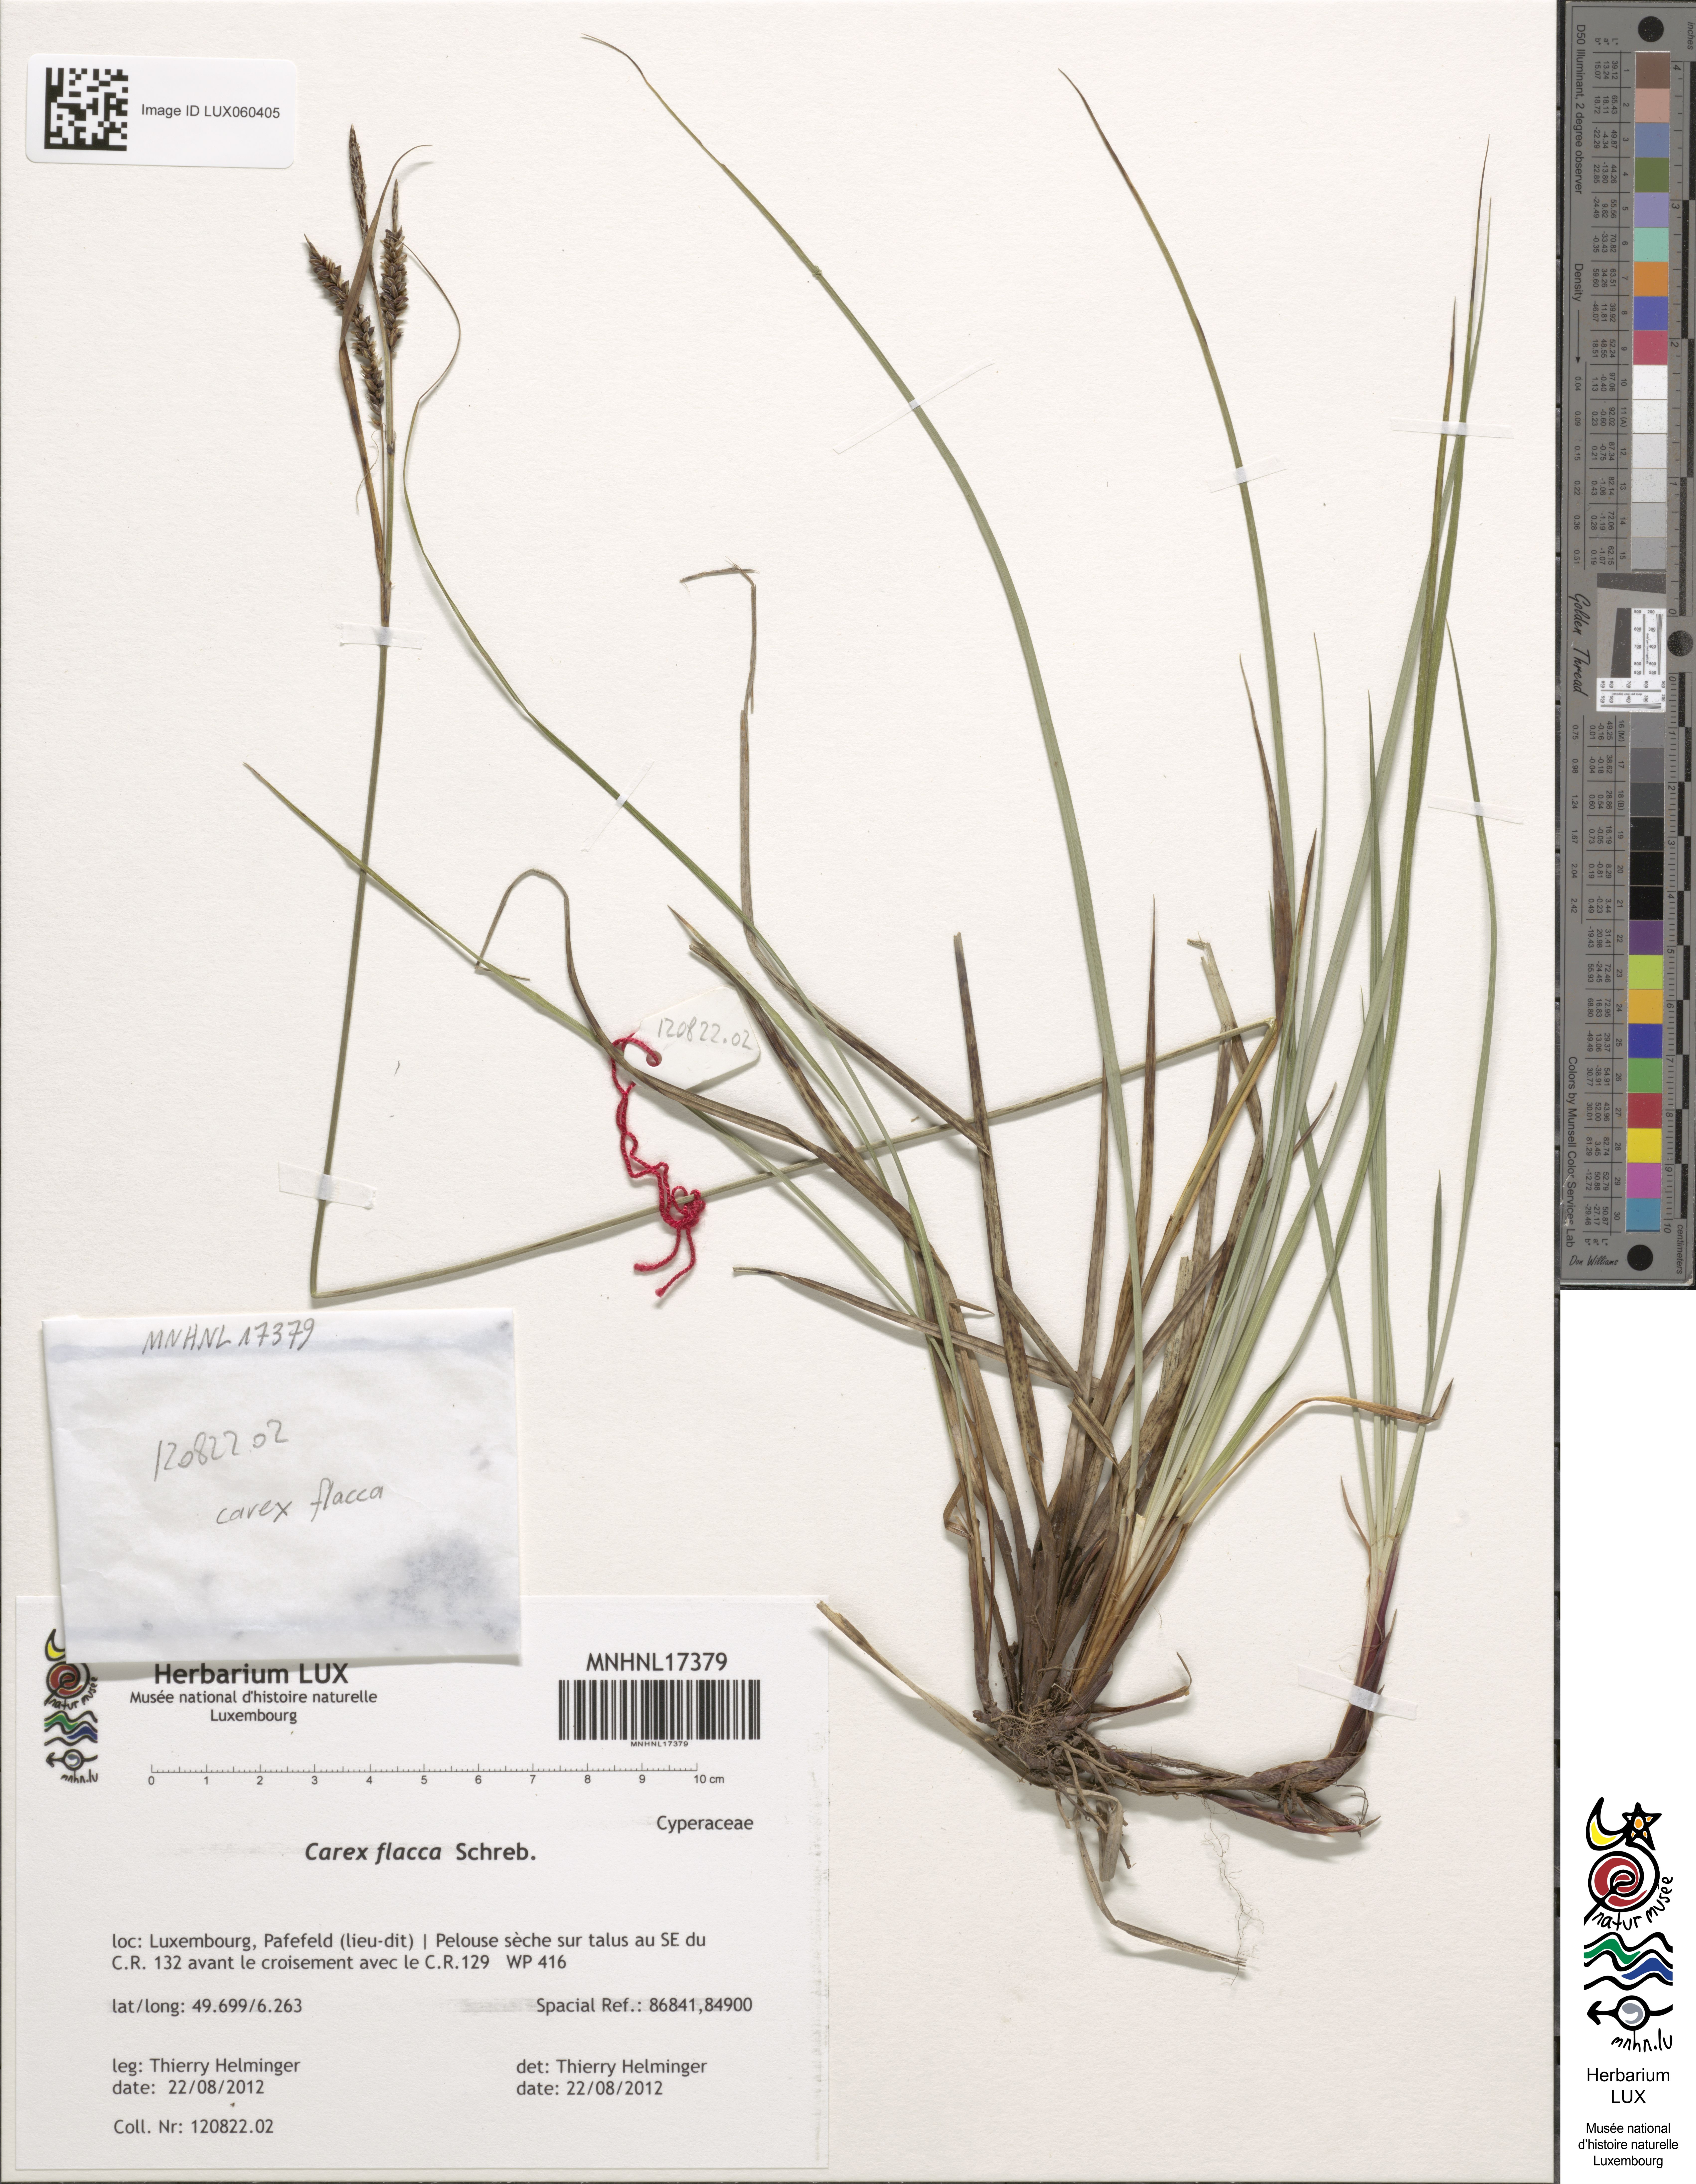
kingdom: Plantae
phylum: Tracheophyta
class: Liliopsida
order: Poales
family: Cyperaceae
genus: Carex
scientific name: Carex flacca
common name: Glaucous sedge
